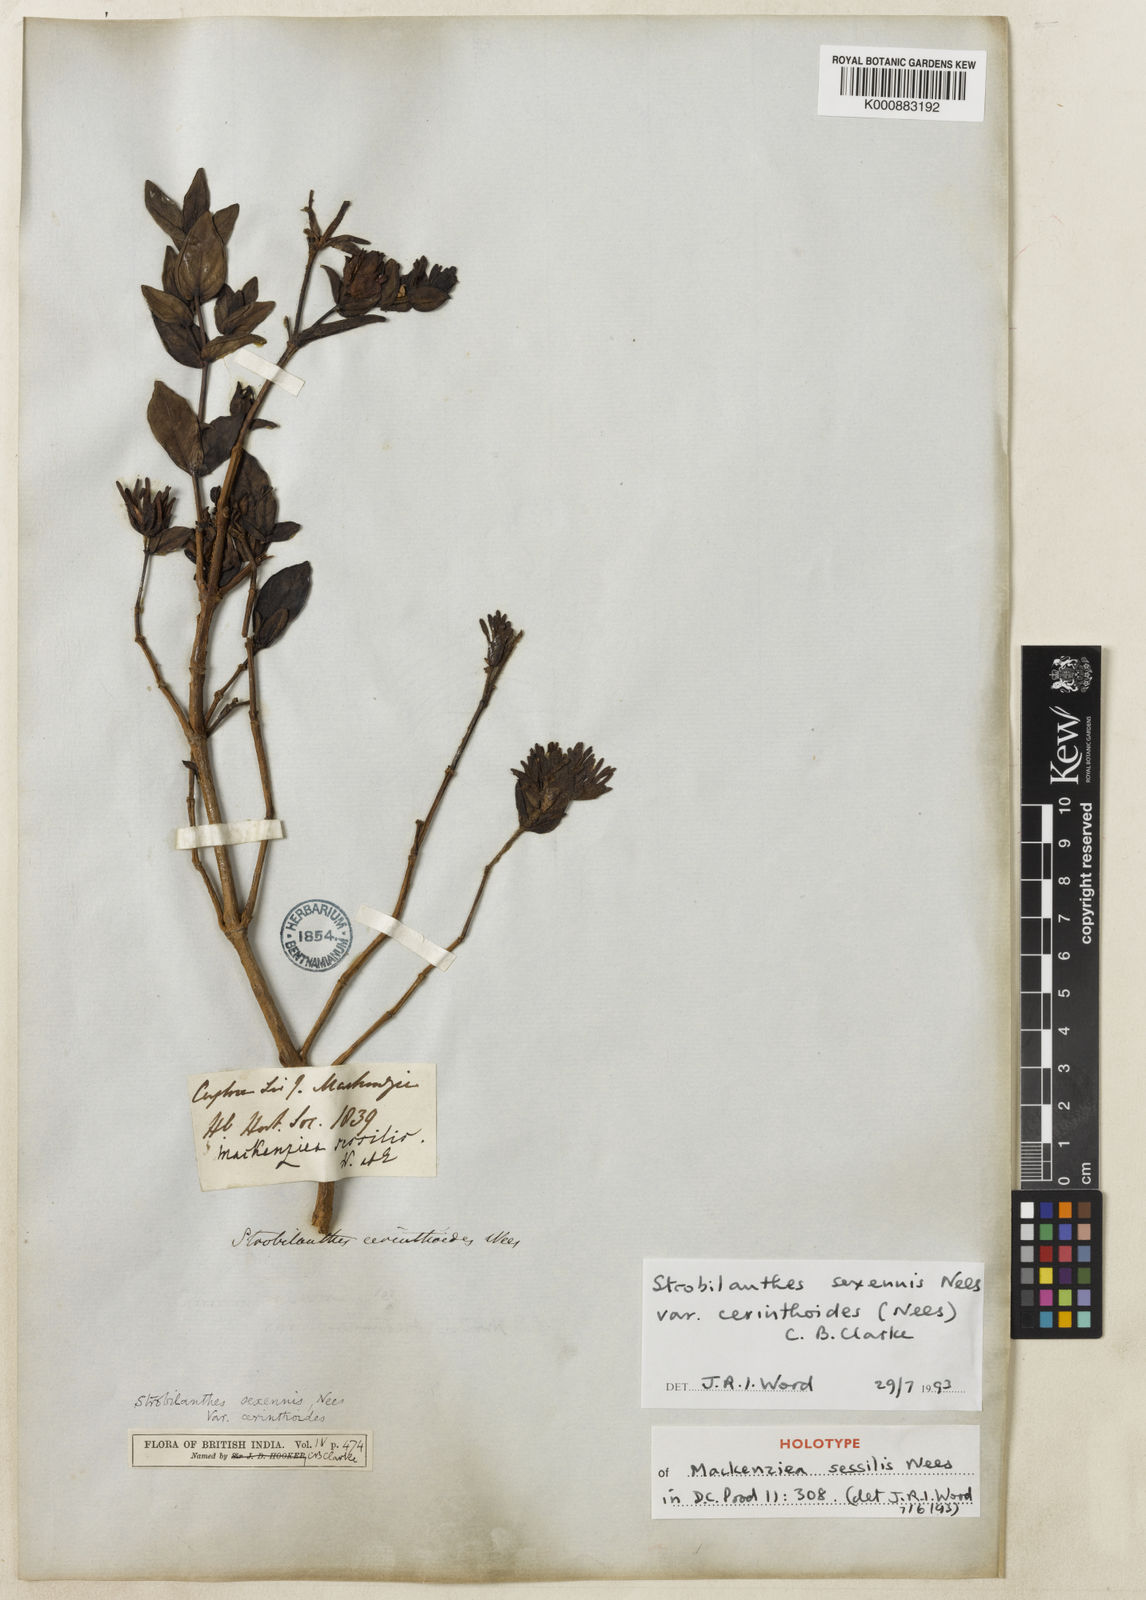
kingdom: Plantae
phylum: Tracheophyta
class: Magnoliopsida
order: Lamiales
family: Acanthaceae
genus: Strobilanthes
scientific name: Strobilanthes sexennis
